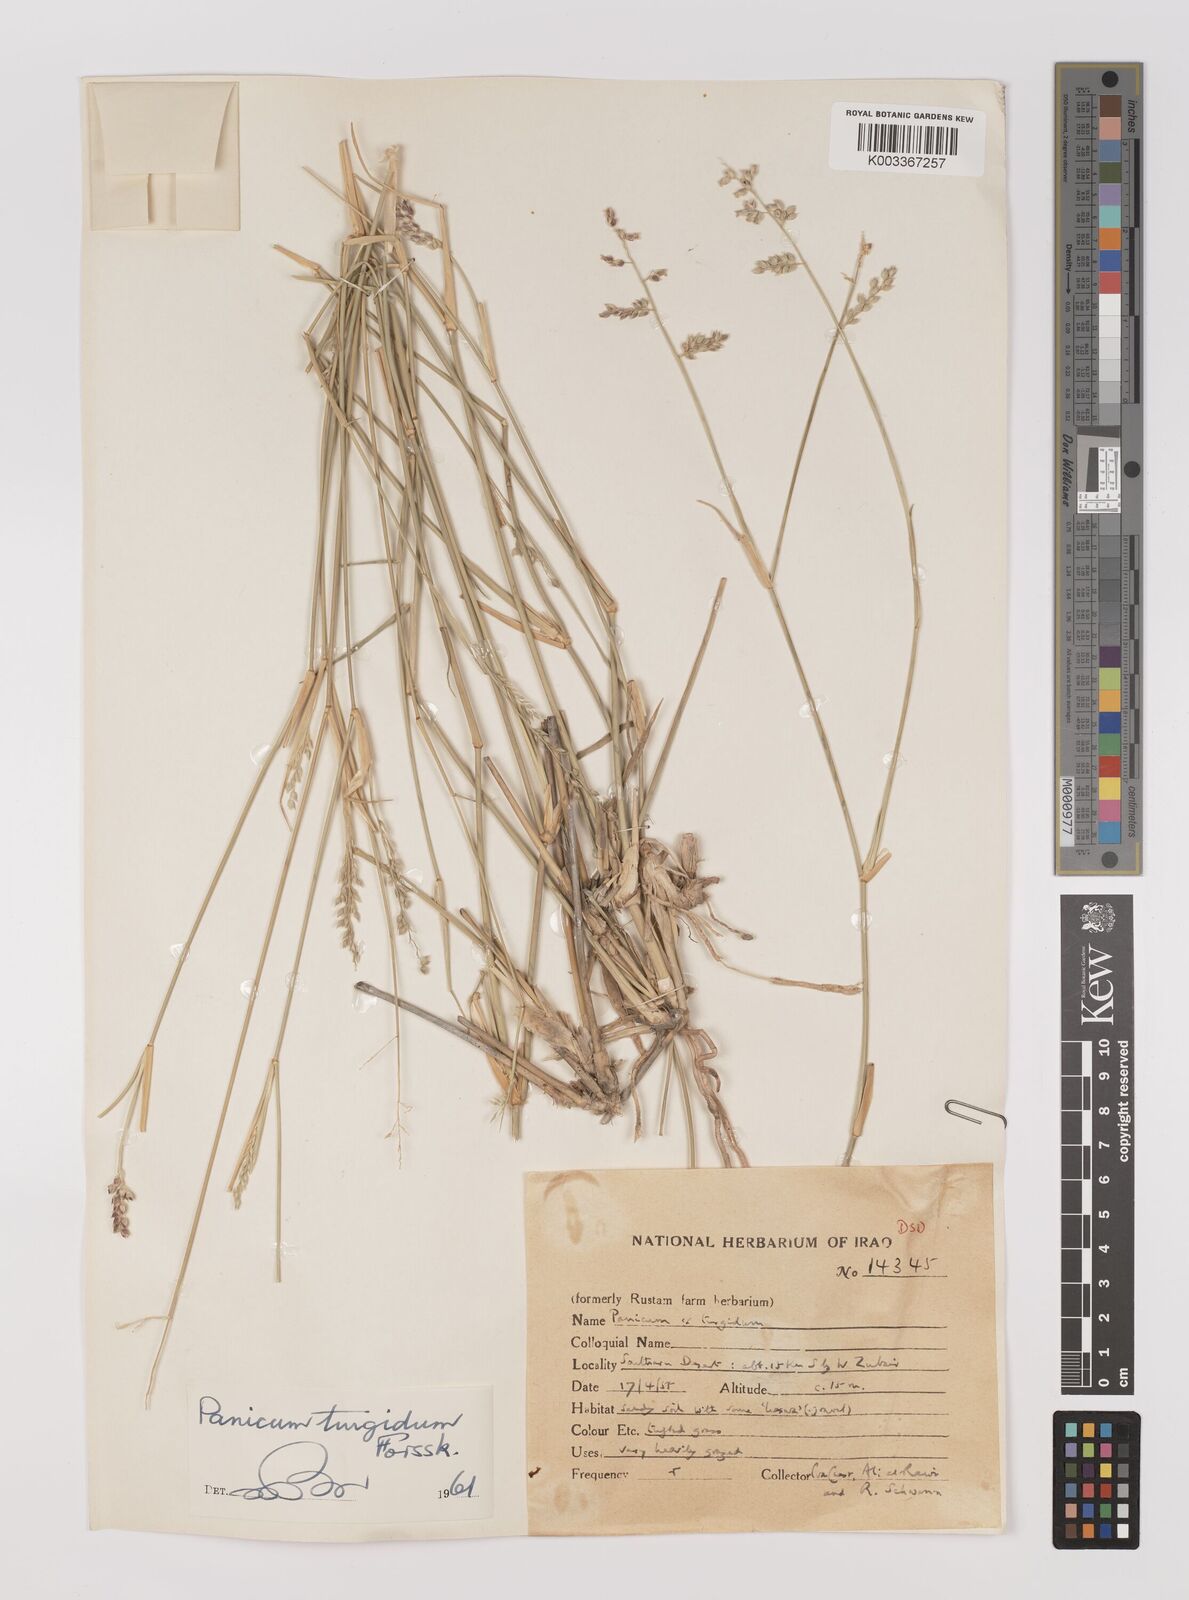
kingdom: Plantae
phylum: Tracheophyta
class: Liliopsida
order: Poales
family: Poaceae
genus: Panicum
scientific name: Panicum turgidum
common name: Desert grass
